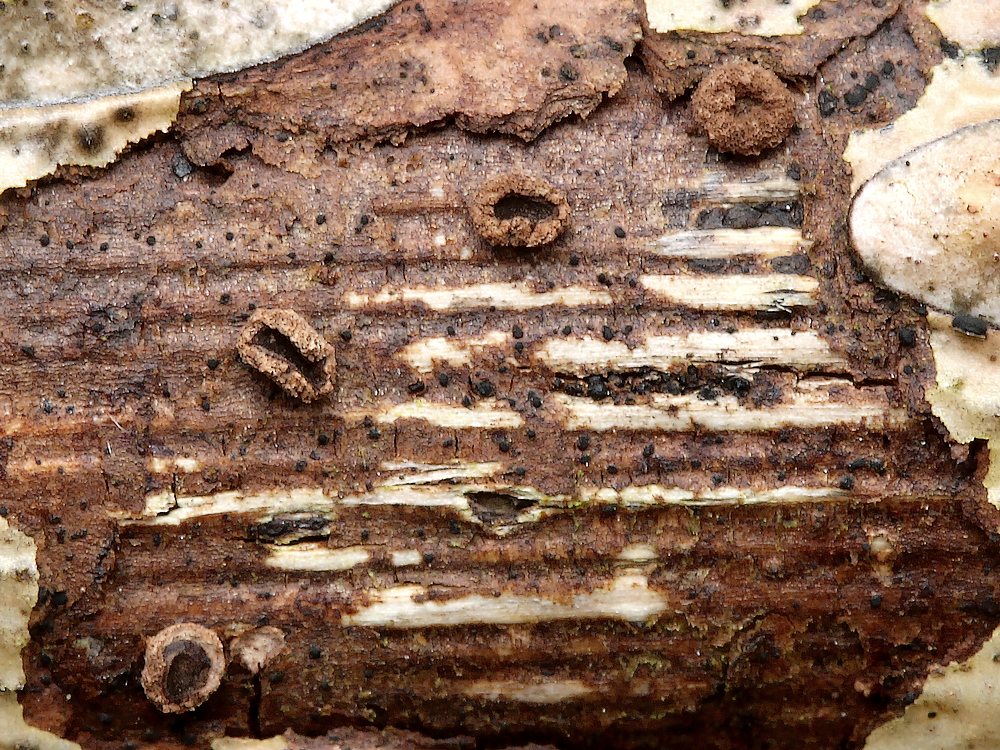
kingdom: Fungi
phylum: Ascomycota
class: Leotiomycetes
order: Helotiales
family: Cenangiaceae
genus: Velutarina
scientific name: Velutarina rufo-olivacea
